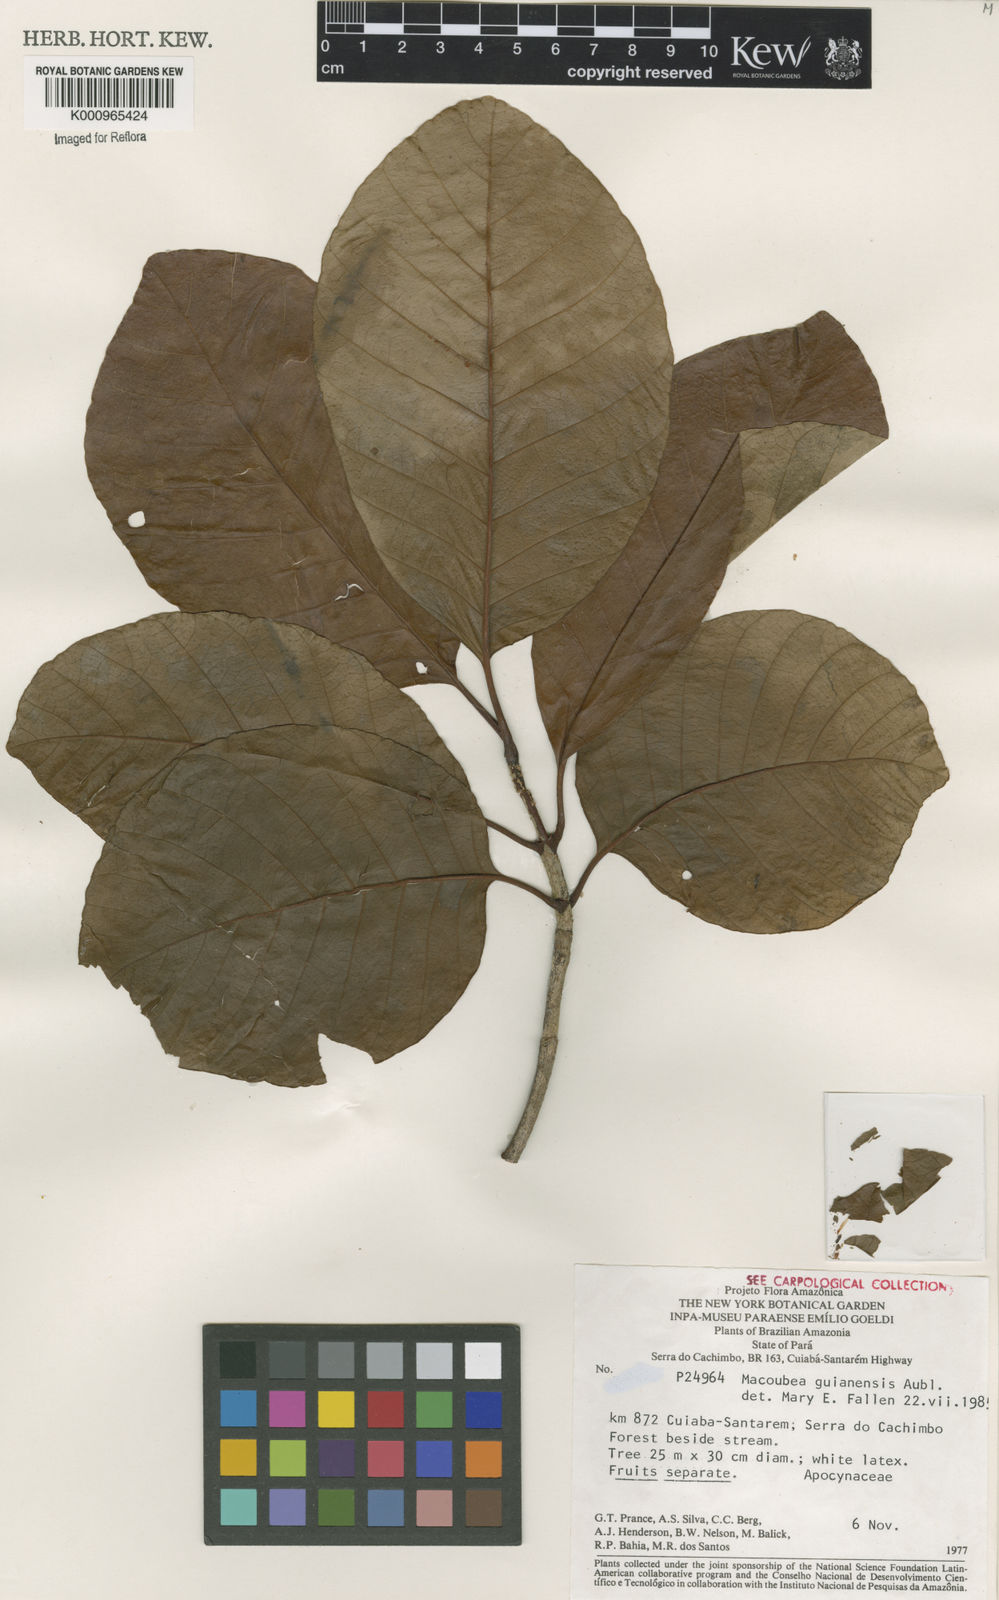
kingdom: Plantae
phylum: Tracheophyta
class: Magnoliopsida
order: Gentianales
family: Apocynaceae
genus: Macoubea
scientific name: Macoubea guianensis
